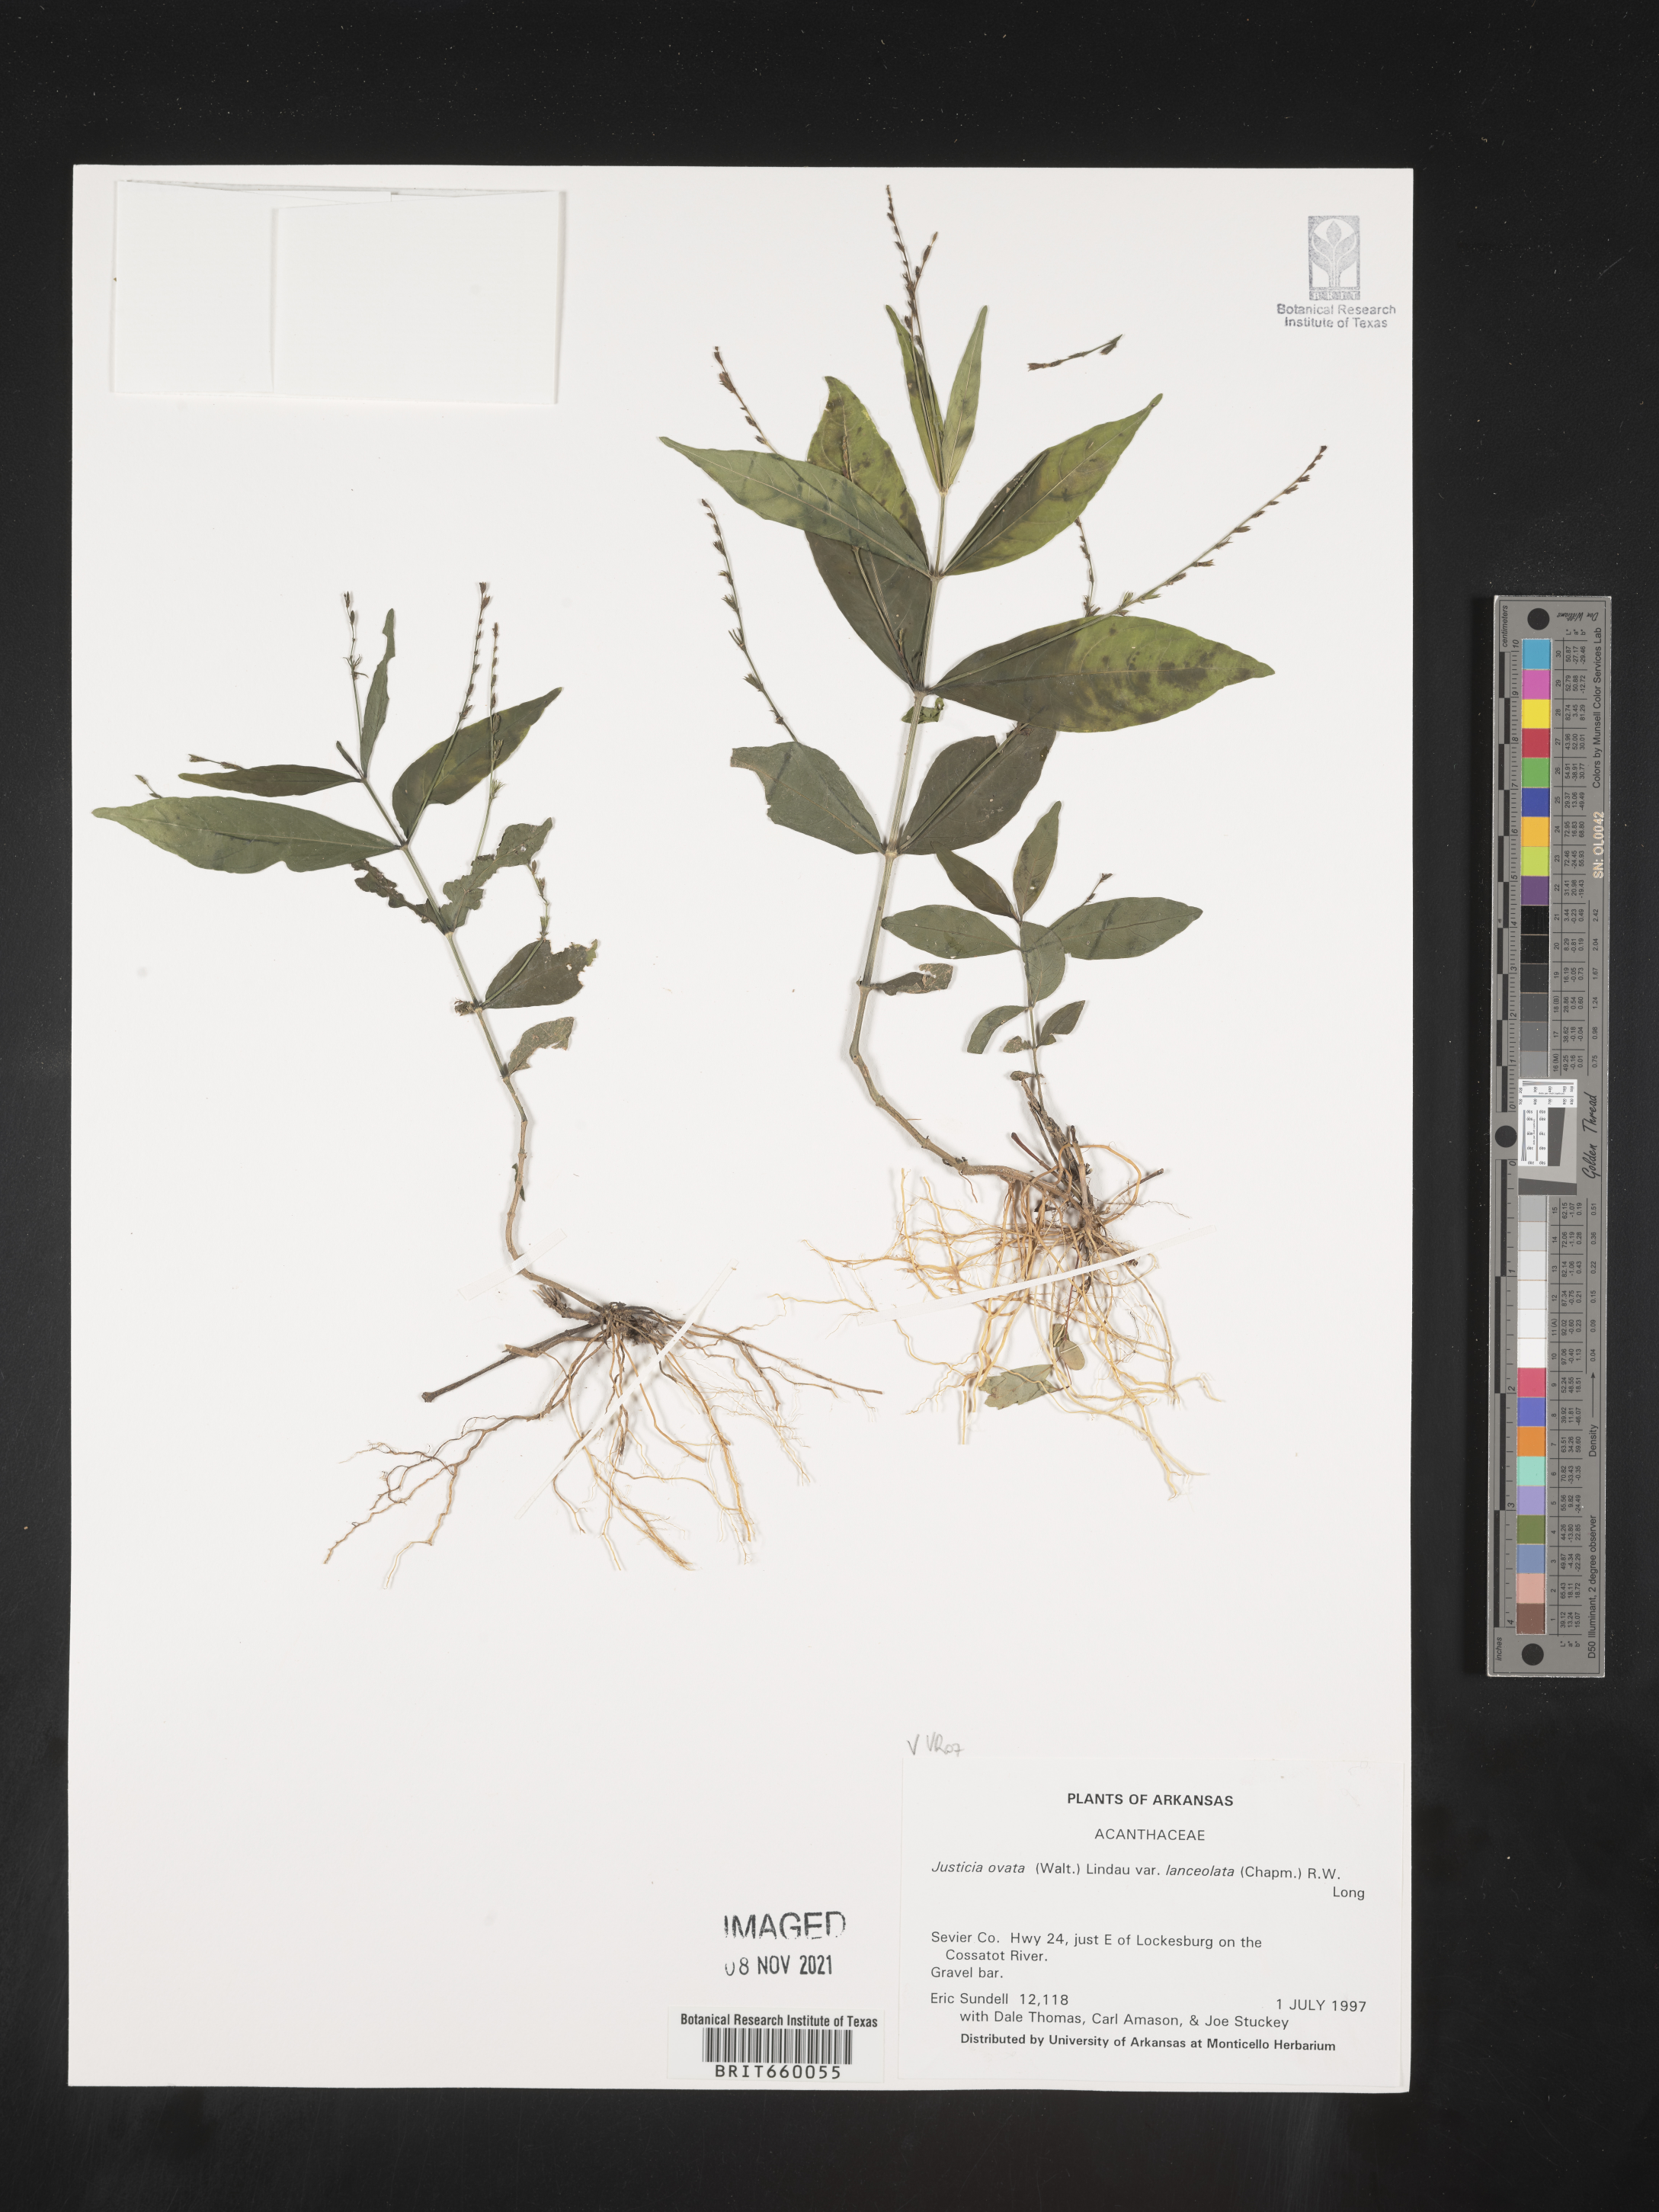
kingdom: Plantae
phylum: Tracheophyta
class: Magnoliopsida
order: Lamiales
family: Acanthaceae
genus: Justicia
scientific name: Justicia lanceolata
